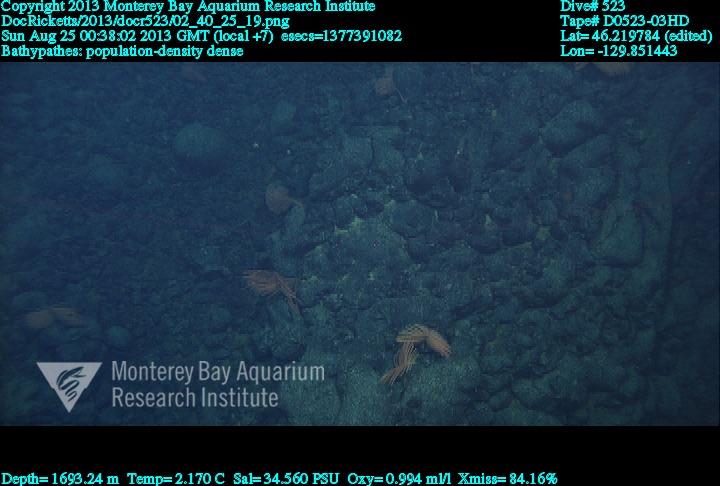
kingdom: Animalia
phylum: Cnidaria
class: Anthozoa
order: Antipatharia
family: Schizopathidae
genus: Bathypathes
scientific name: Bathypathes
